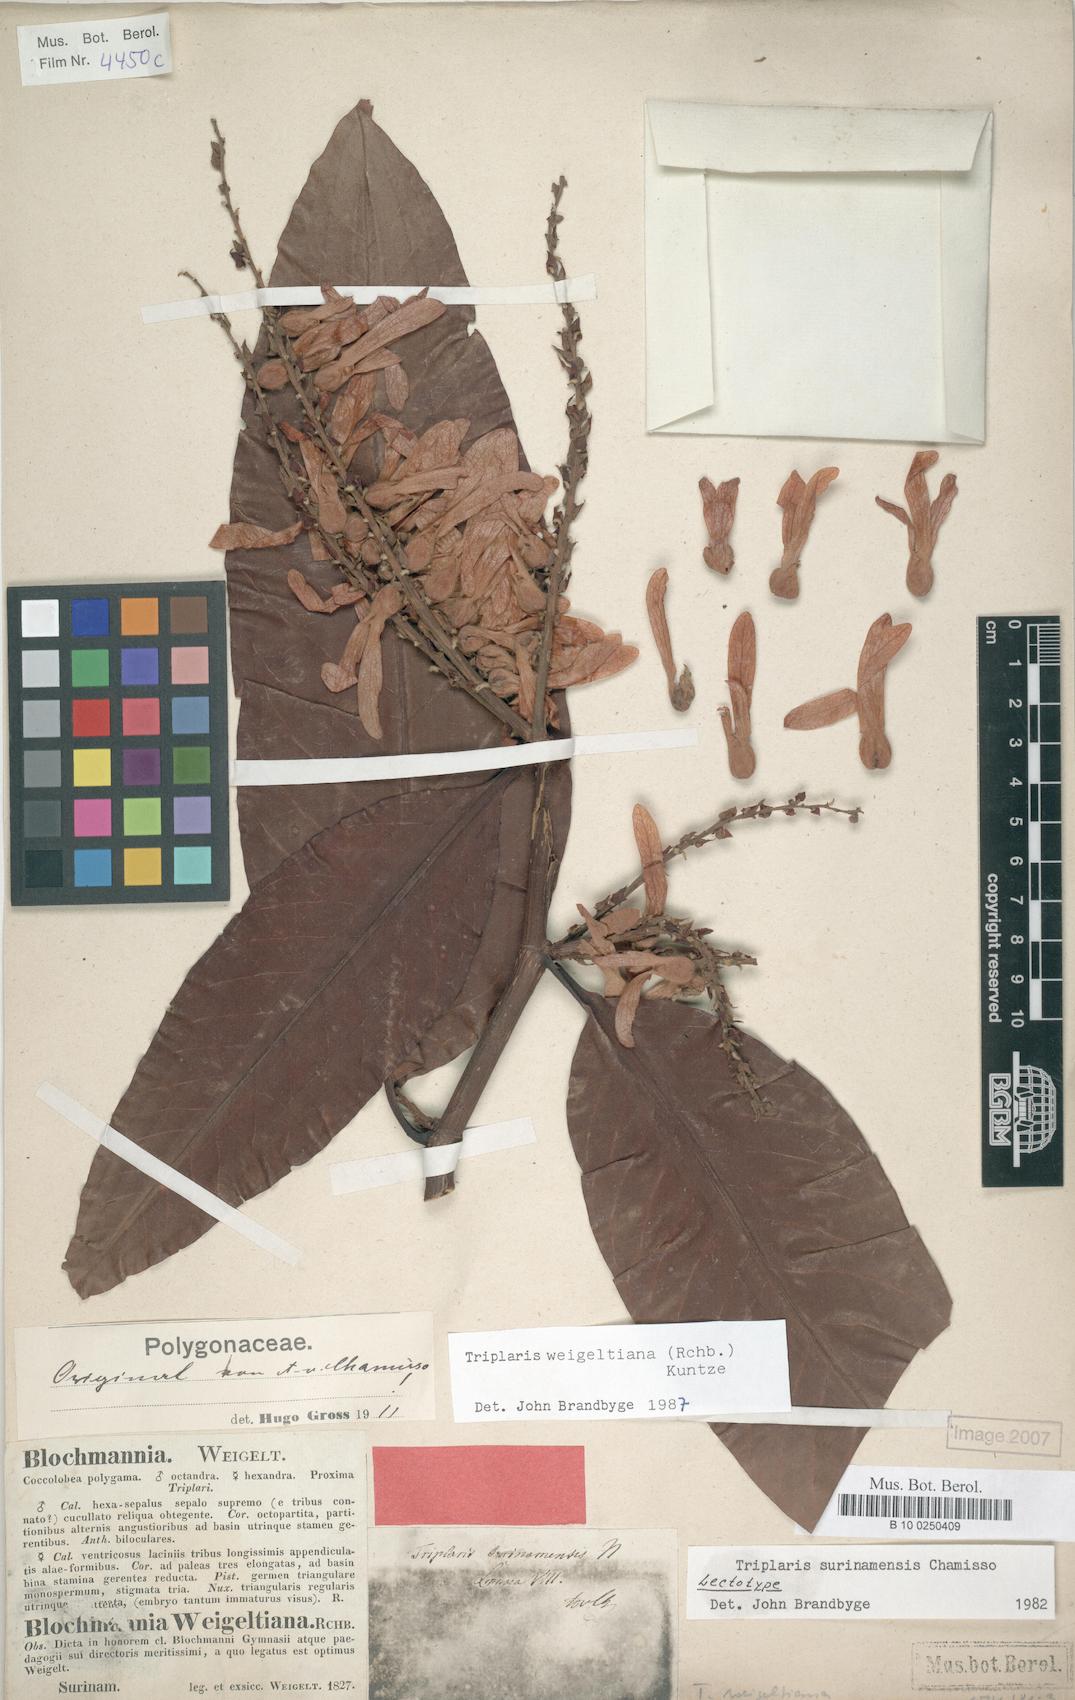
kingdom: Plantae
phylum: Tracheophyta
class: Magnoliopsida
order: Caryophyllales
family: Polygonaceae
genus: Triplaris
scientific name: Triplaris weigeltiana
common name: Long john
